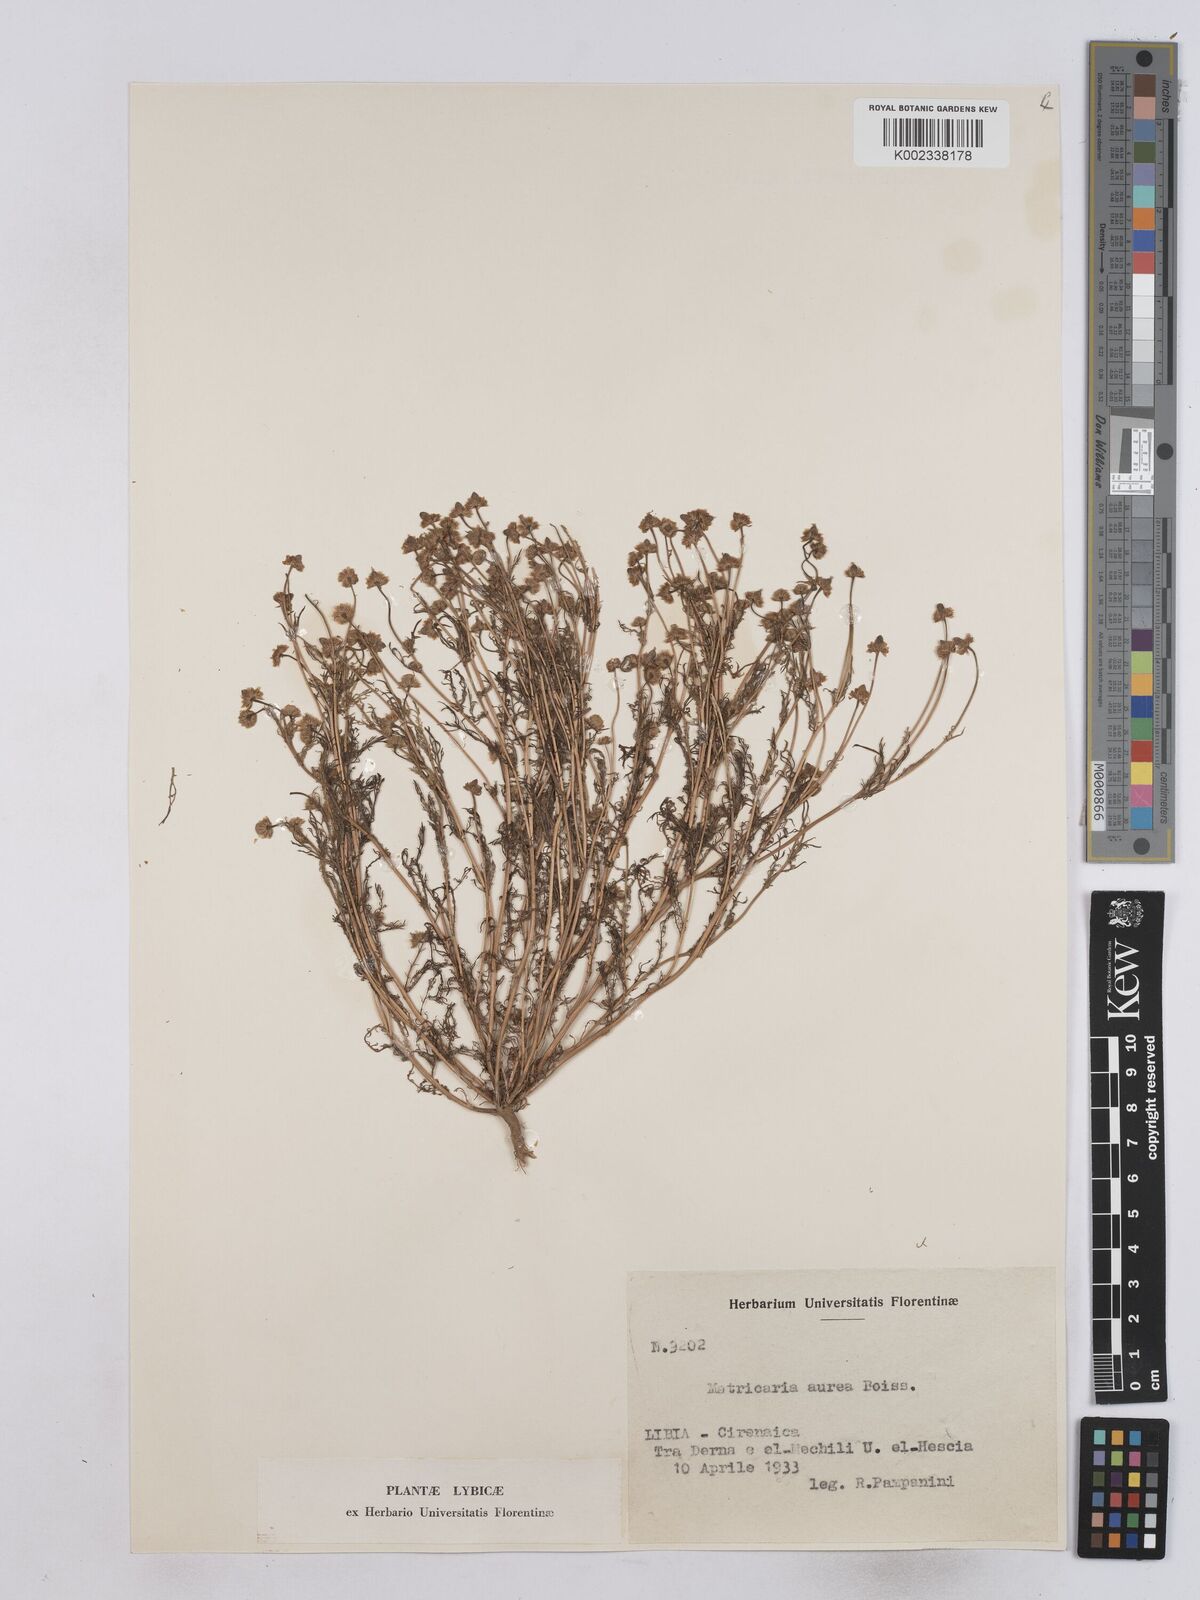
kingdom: Plantae
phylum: Tracheophyta
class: Magnoliopsida
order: Asterales
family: Asteraceae
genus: Matricaria
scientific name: Matricaria aurea
